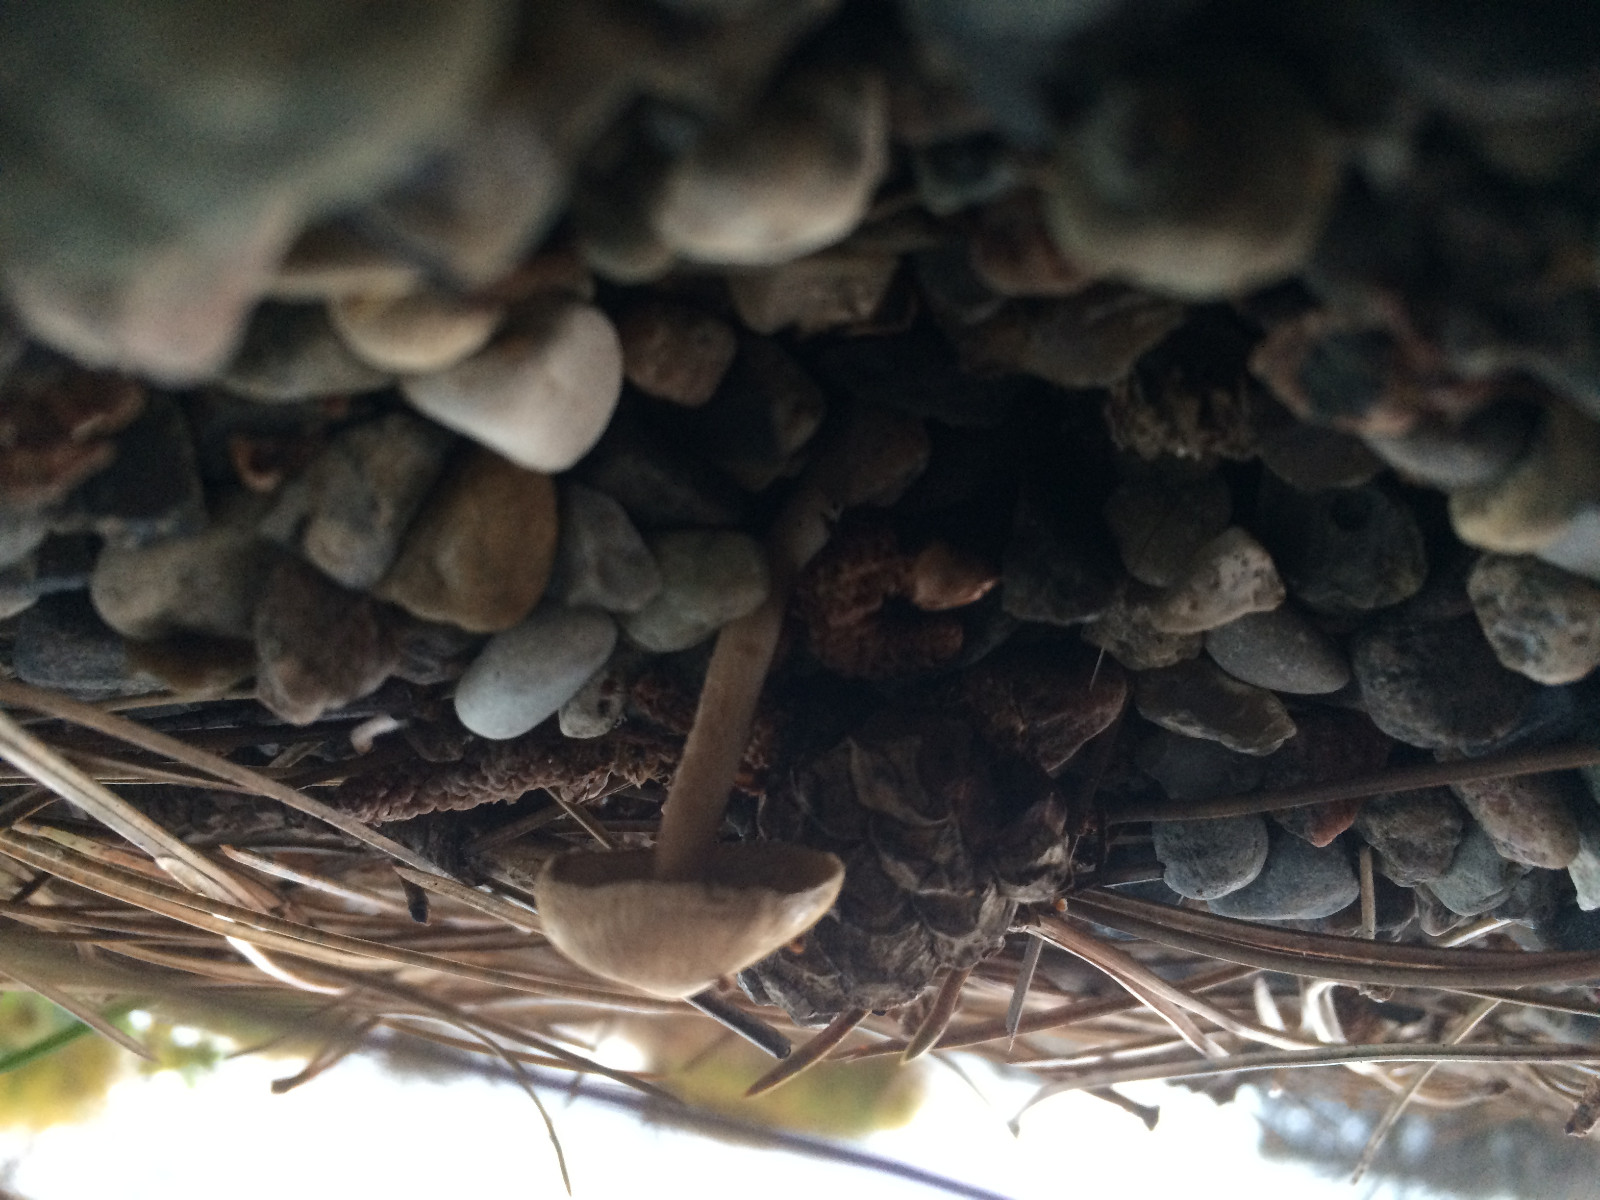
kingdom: Fungi
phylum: Basidiomycota
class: Agaricomycetes
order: Agaricales
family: Inocybaceae
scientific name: Inocybaceae
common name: trævlhatfamilien
